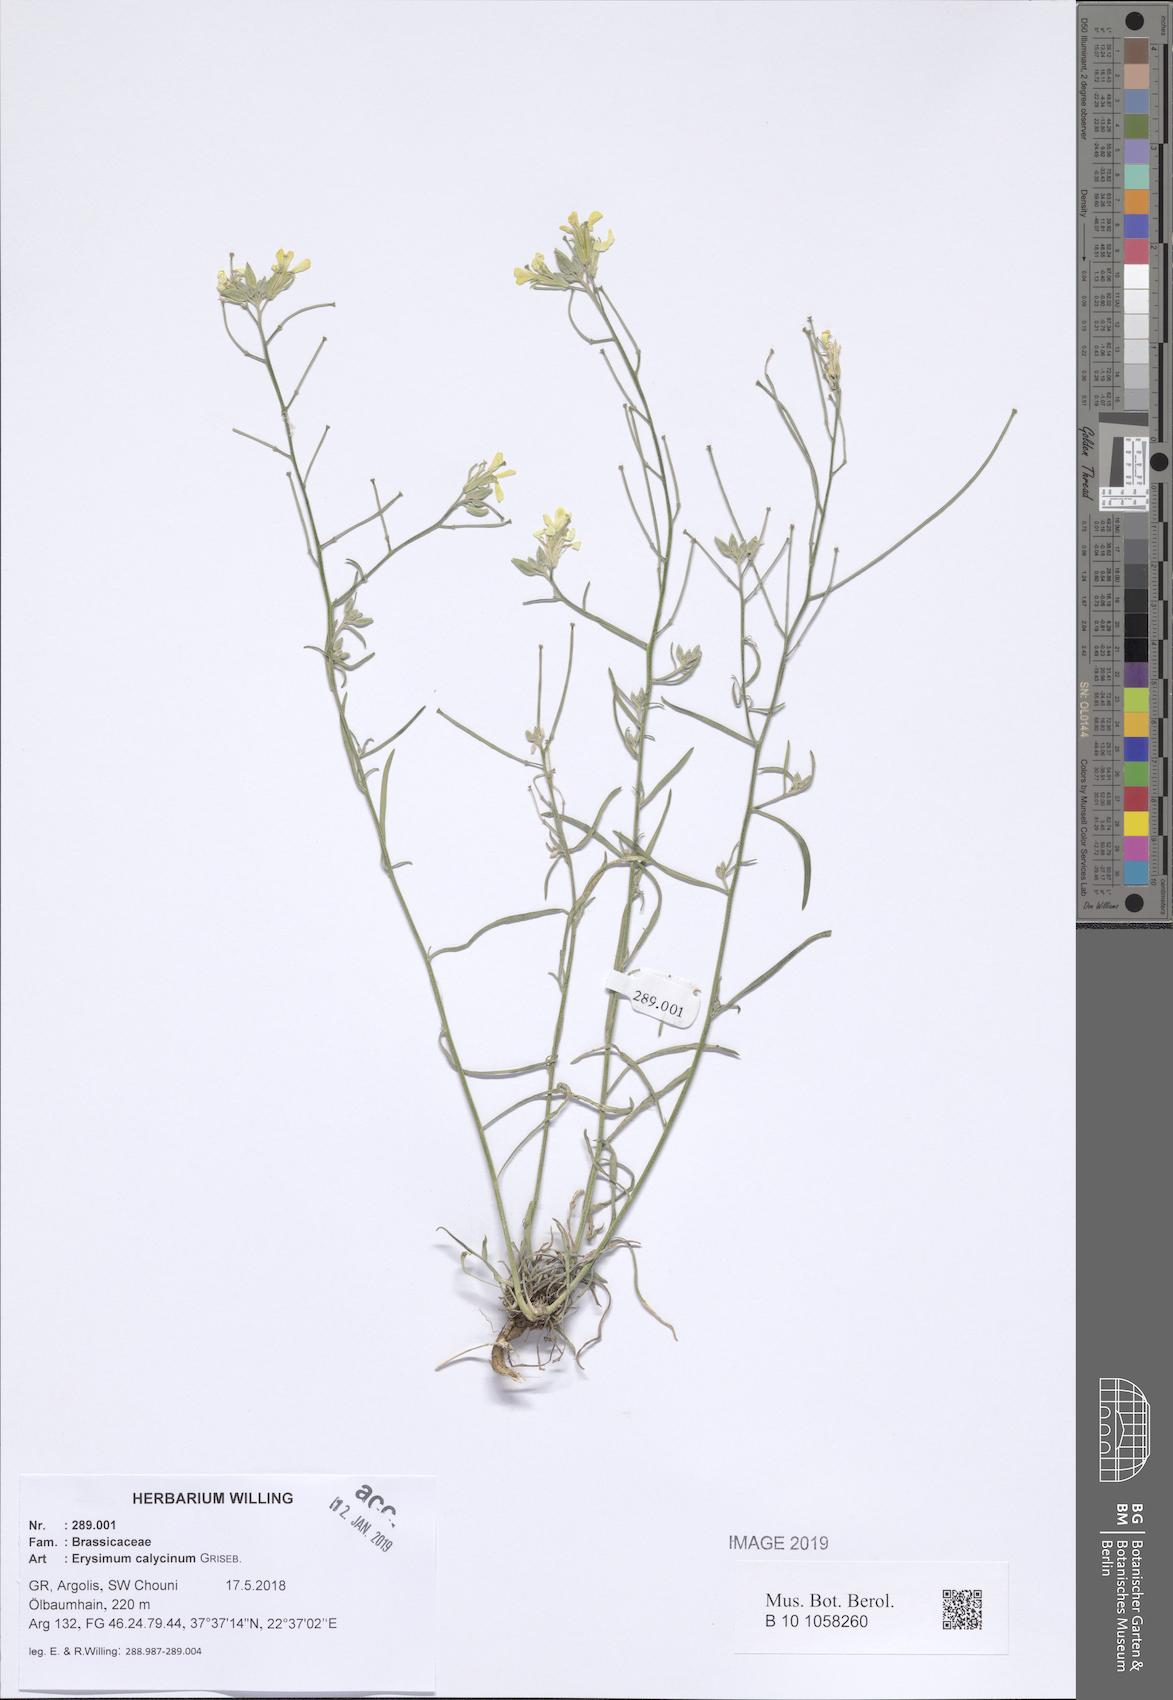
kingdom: Plantae
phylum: Tracheophyta
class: Magnoliopsida
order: Brassicales
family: Brassicaceae
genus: Erysimum
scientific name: Erysimum calycinum
